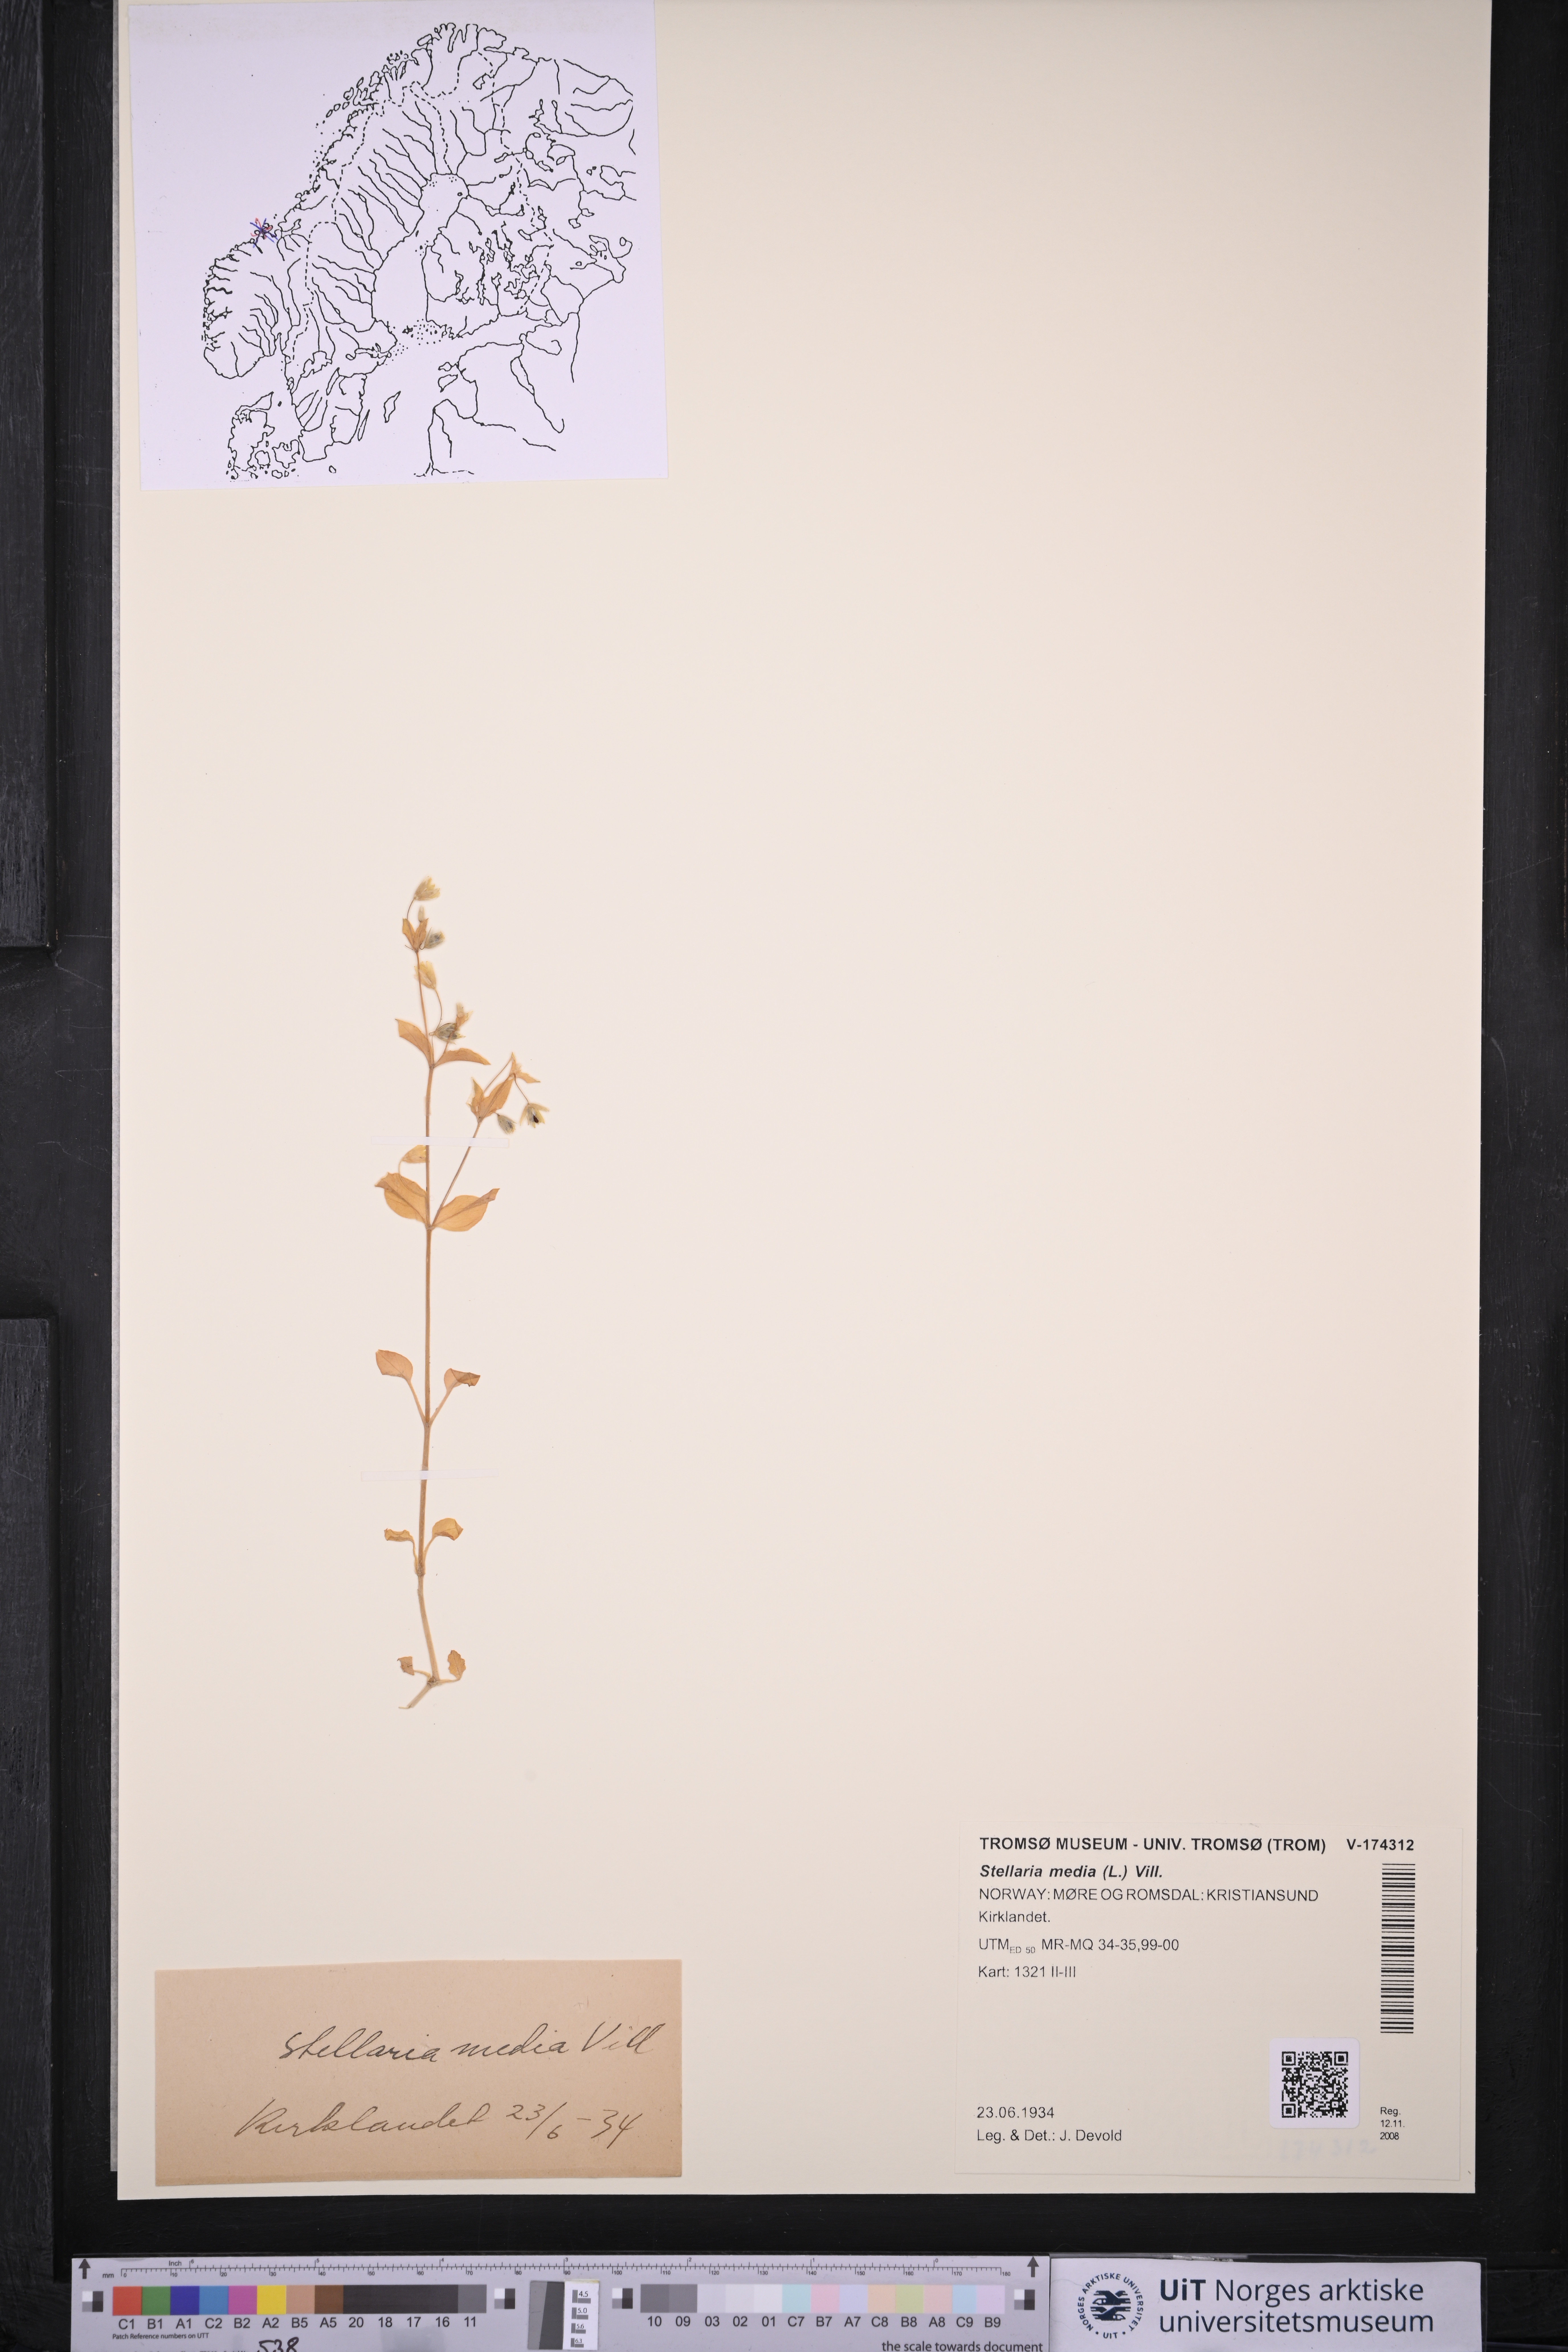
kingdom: Plantae
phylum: Tracheophyta
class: Magnoliopsida
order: Caryophyllales
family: Caryophyllaceae
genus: Stellaria
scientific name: Stellaria media
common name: Common chickweed
